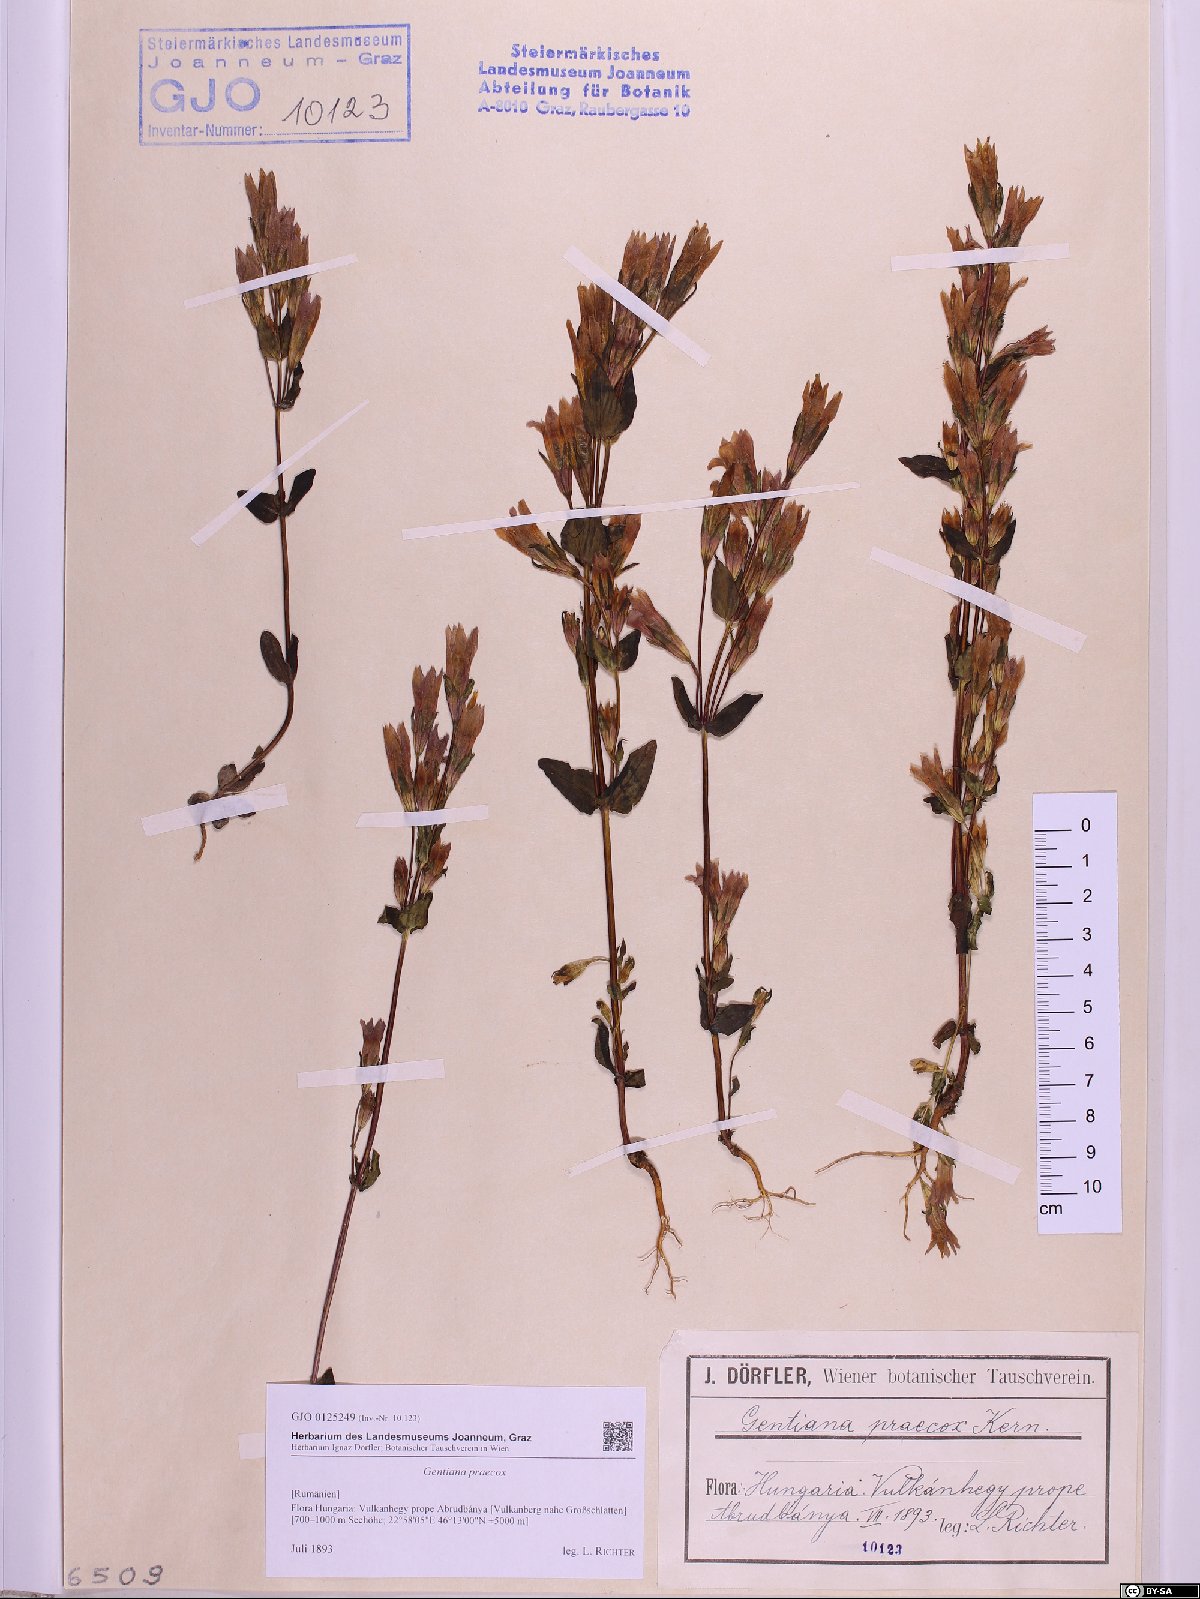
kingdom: Plantae
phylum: Tracheophyta
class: Magnoliopsida
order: Gentianales
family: Gentianaceae
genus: Gentianella
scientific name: Gentianella praecox
